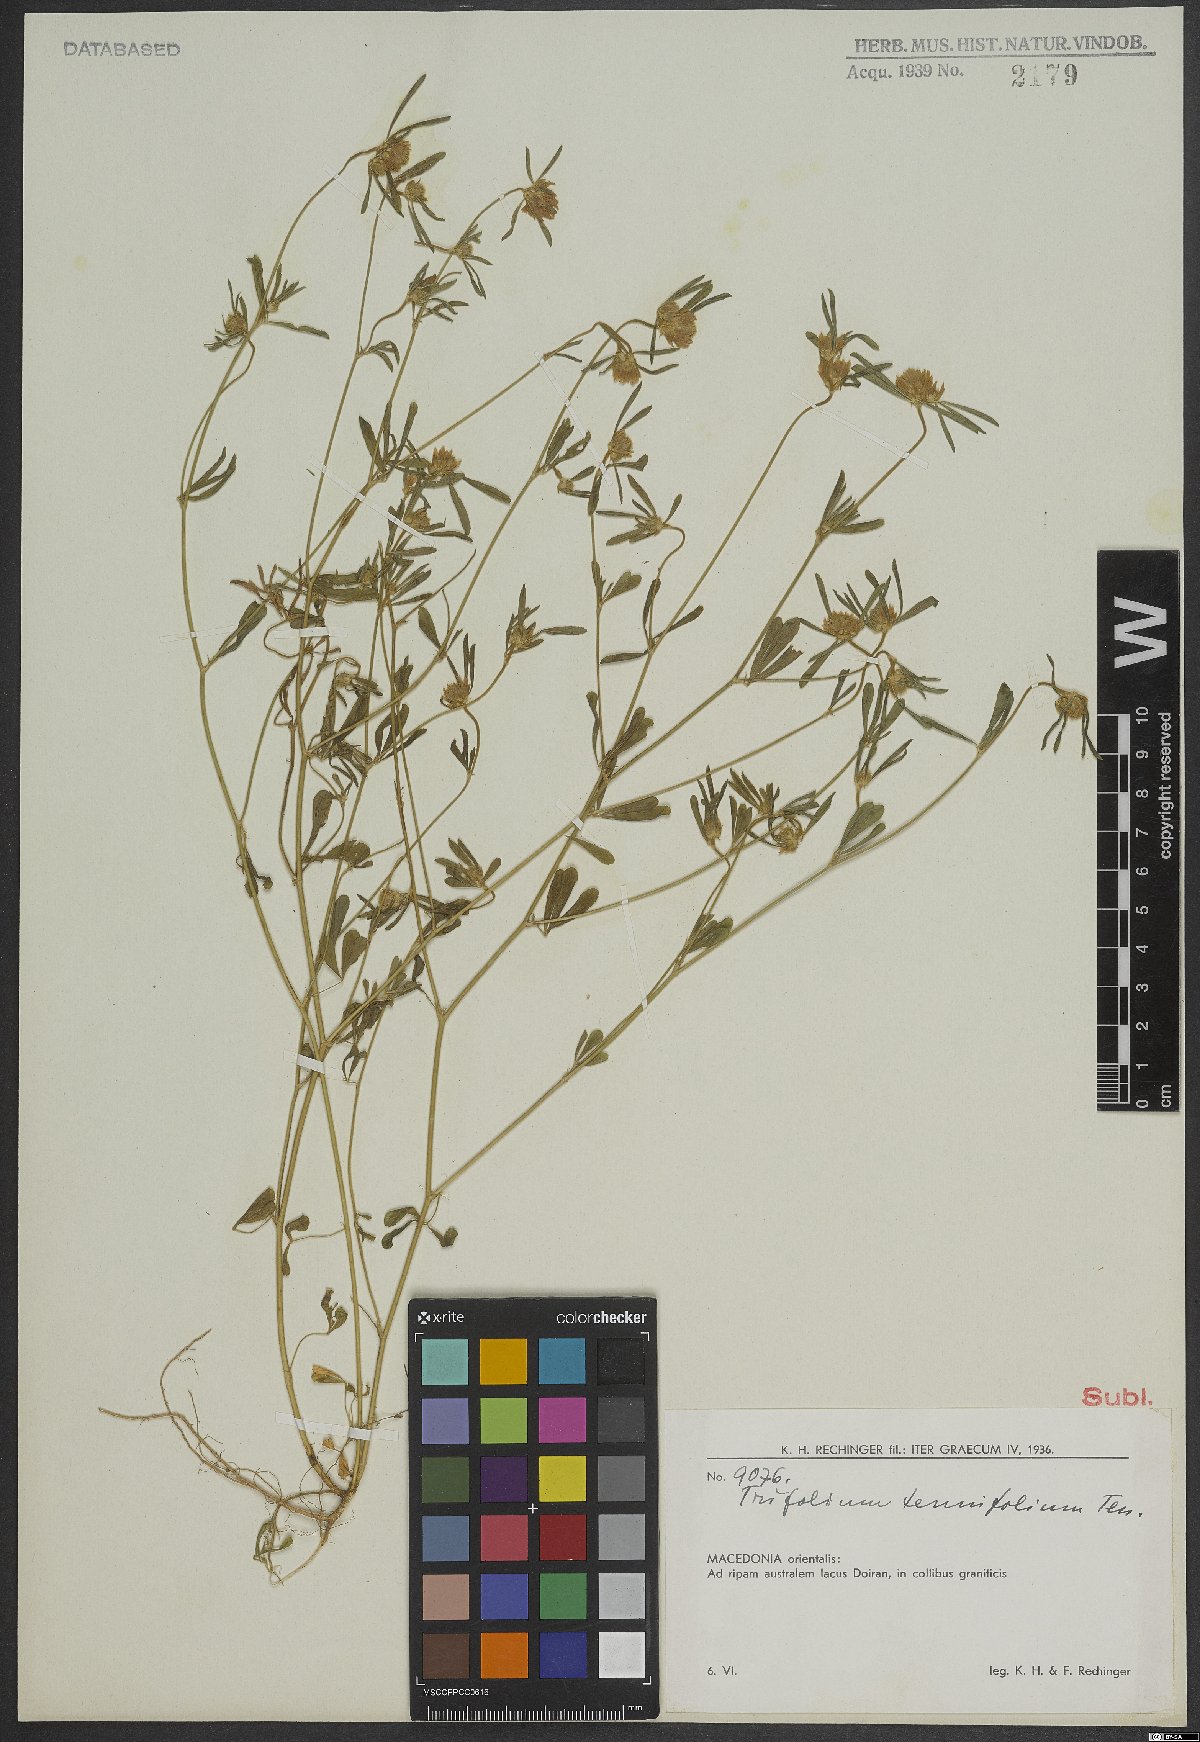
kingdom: Plantae
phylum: Tracheophyta
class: Magnoliopsida
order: Fabales
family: Fabaceae
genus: Trifolium
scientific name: Trifolium tenuifolium
